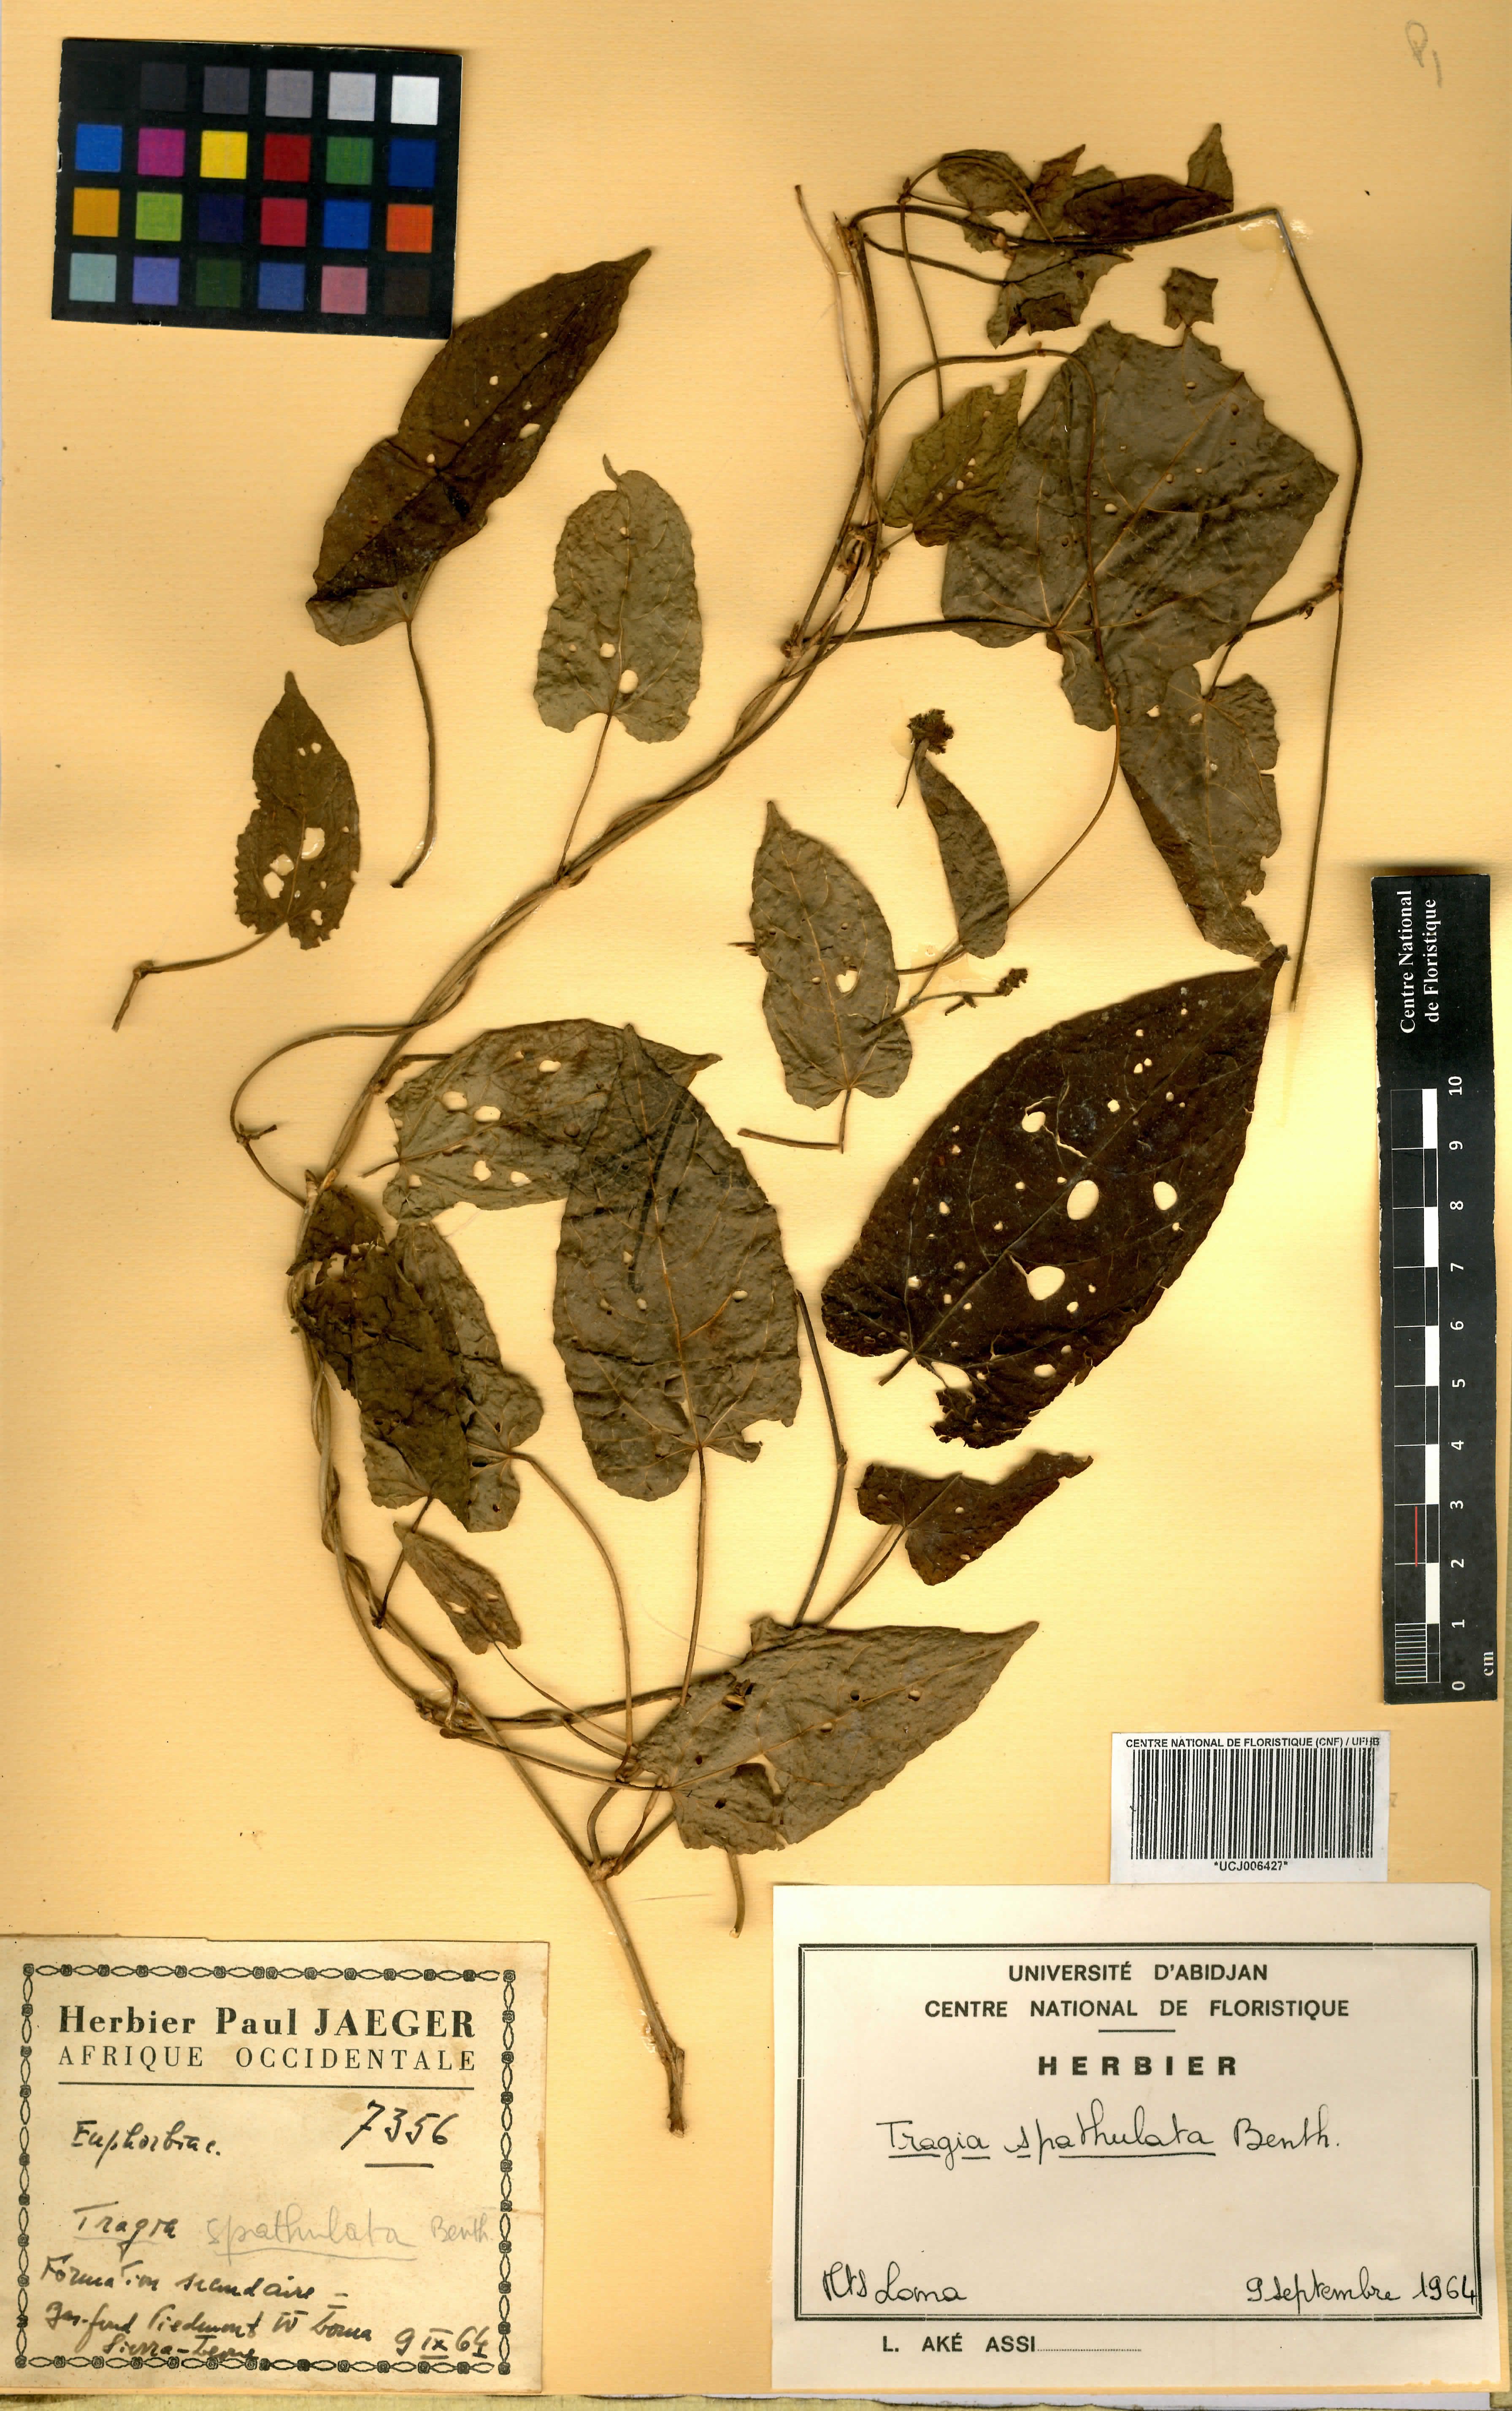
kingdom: Plantae
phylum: Tracheophyta
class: Magnoliopsida
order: Malpighiales
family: Euphorbiaceae
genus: Tragia
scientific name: Tragia spathulata
